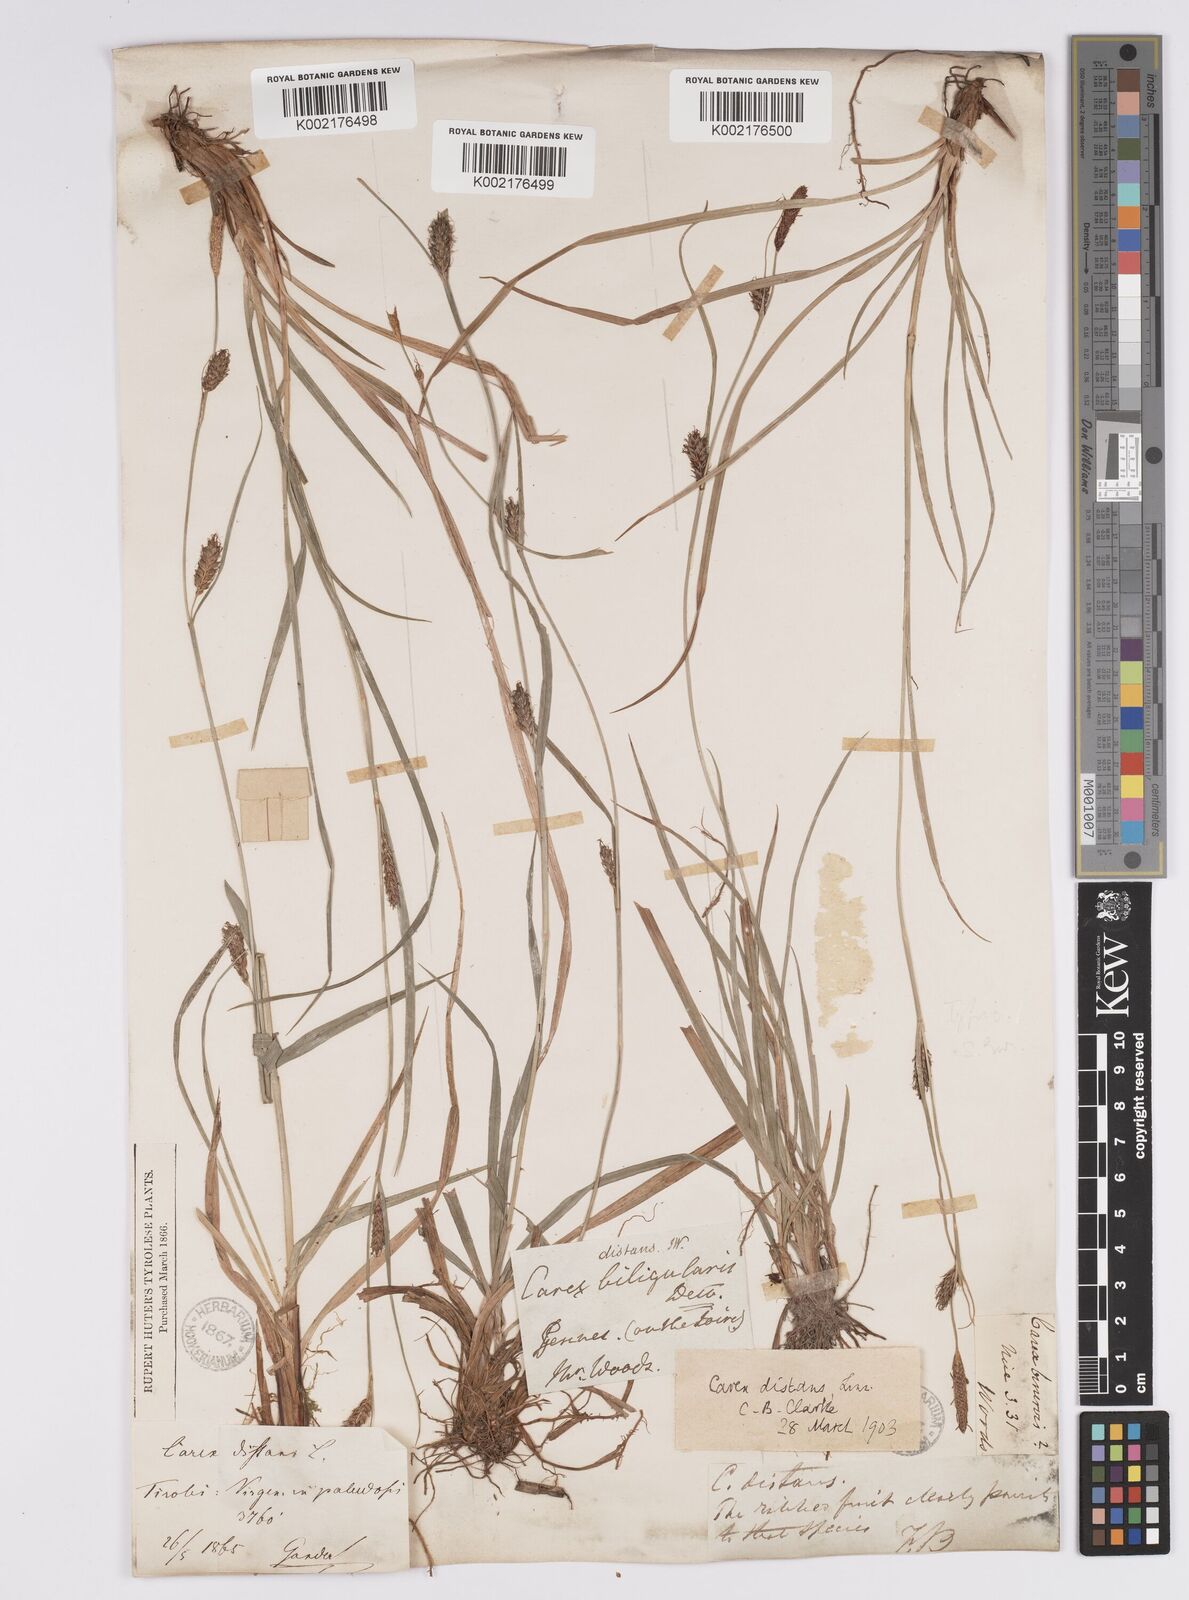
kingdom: Plantae
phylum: Tracheophyta
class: Liliopsida
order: Poales
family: Cyperaceae
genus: Carex
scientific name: Carex distans
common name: Distant sedge
